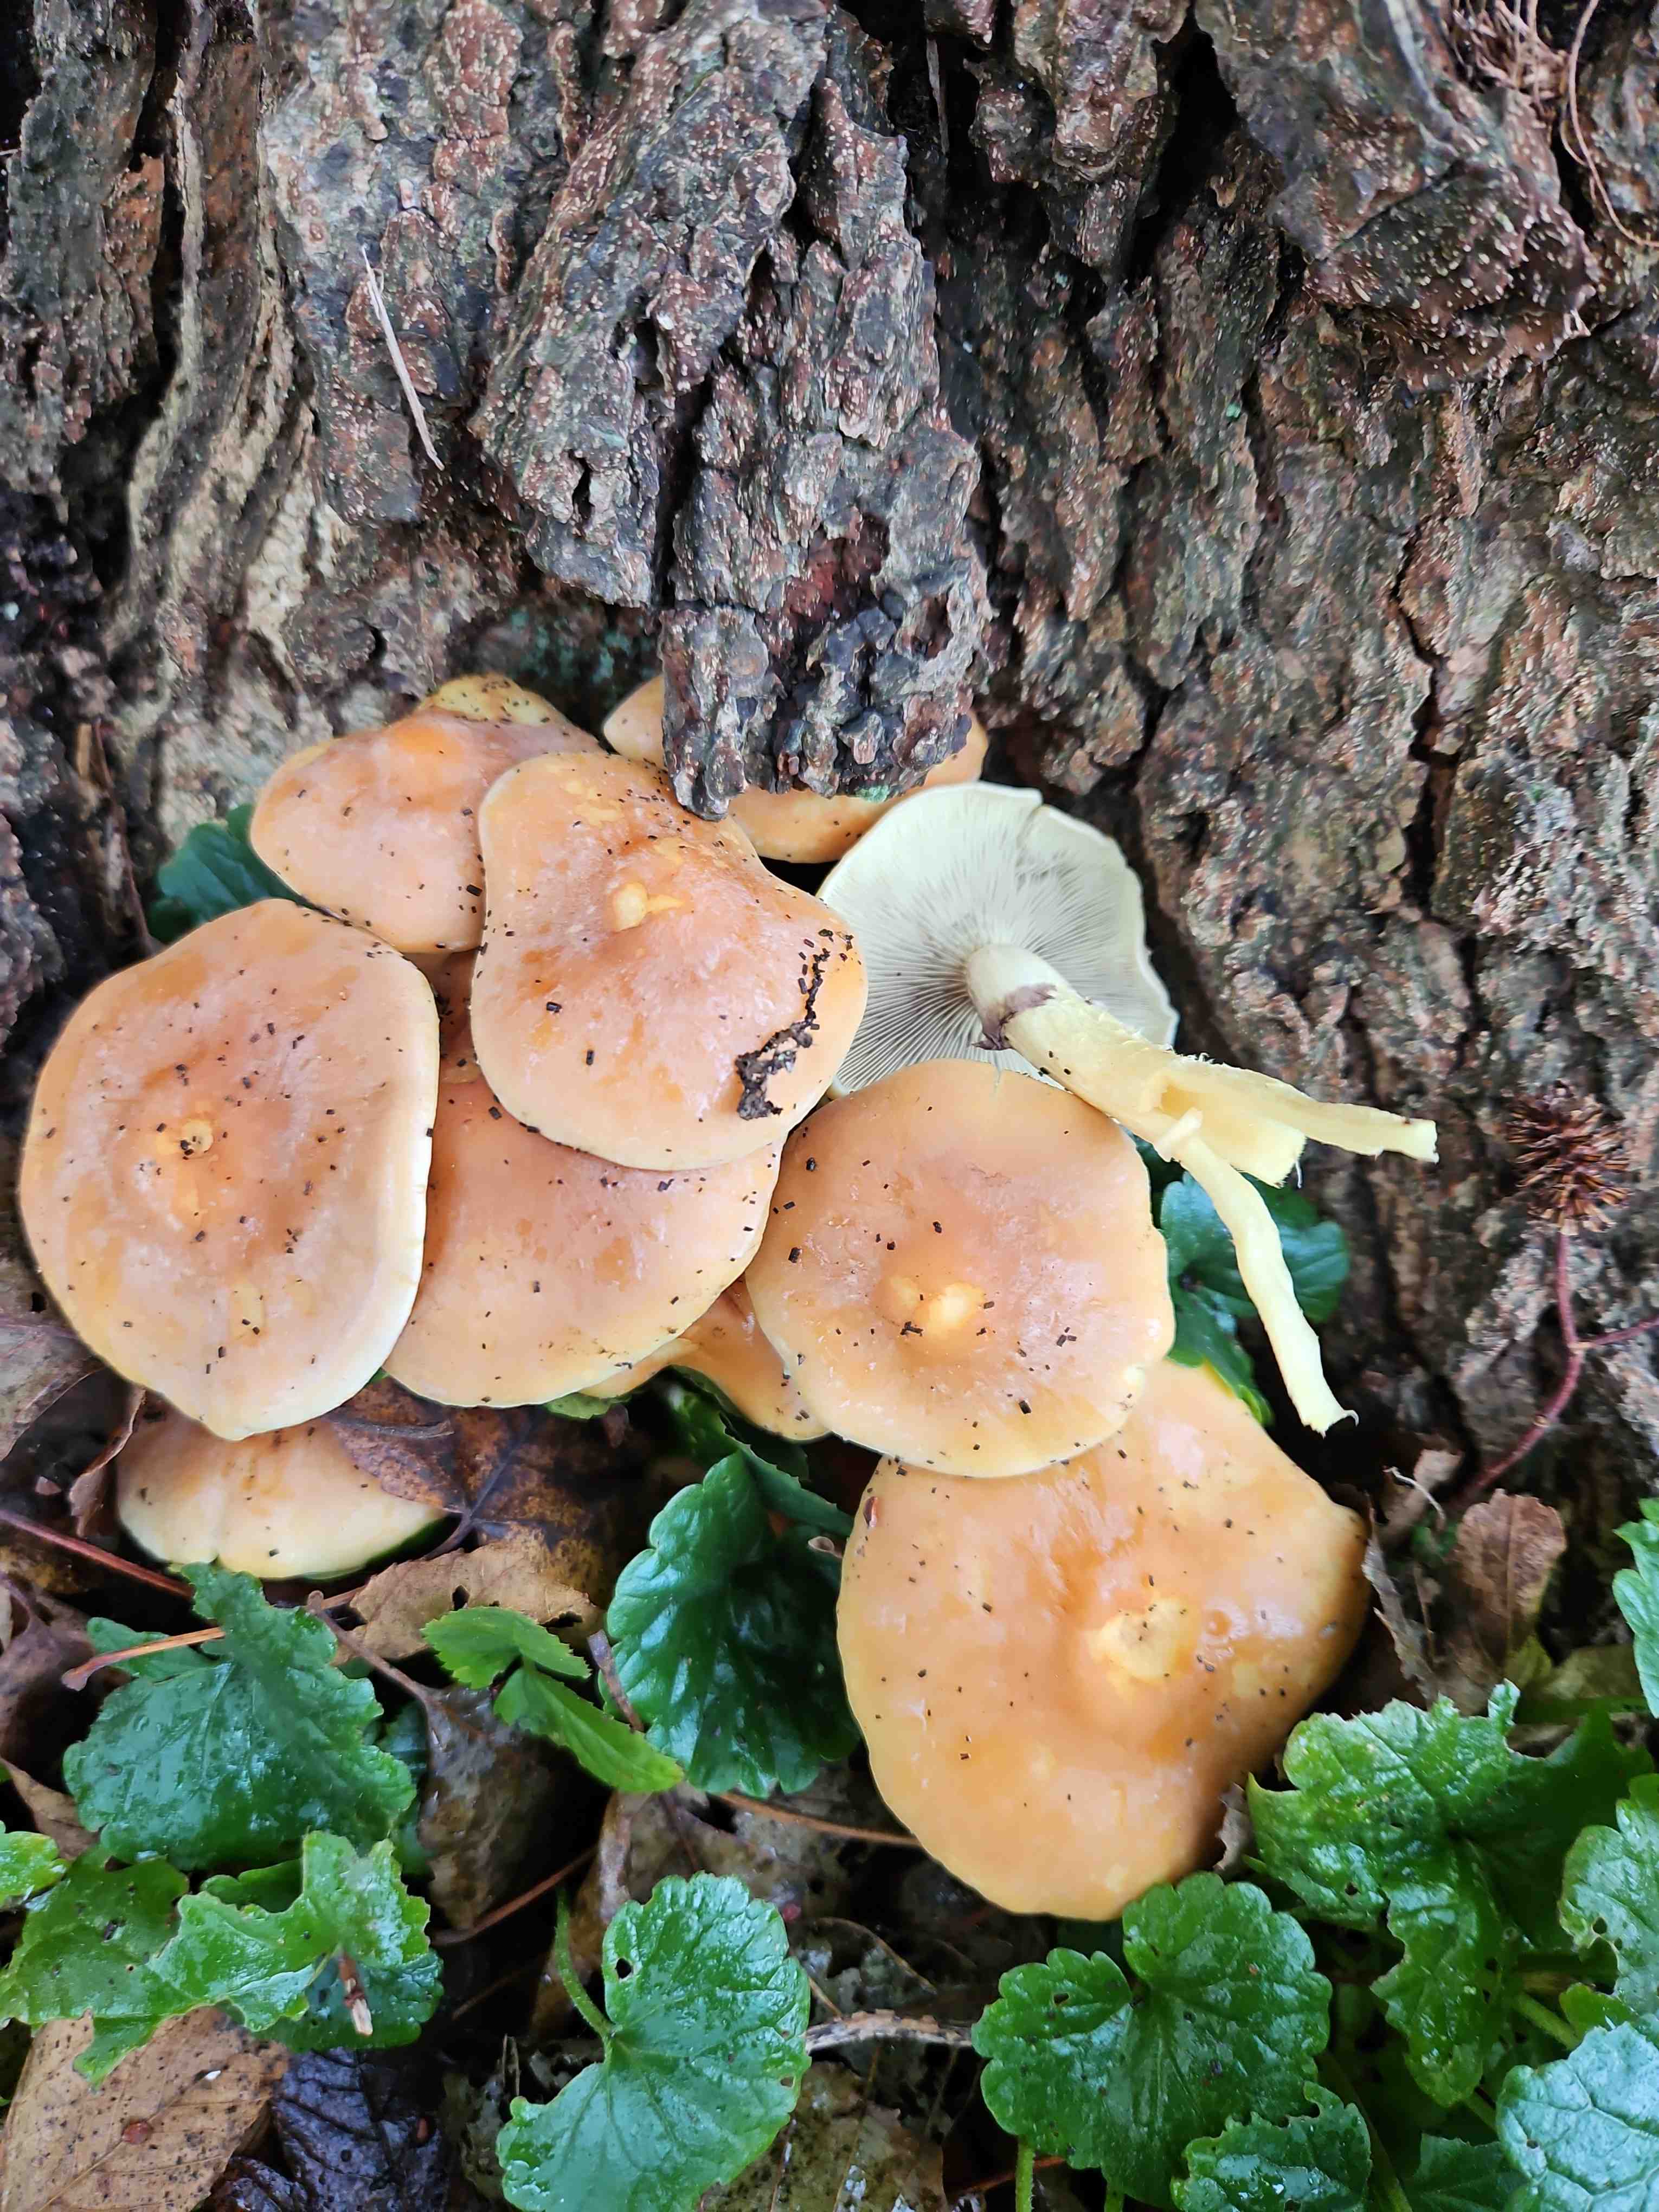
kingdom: Fungi
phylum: Basidiomycota
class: Agaricomycetes
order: Agaricales
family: Strophariaceae
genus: Hypholoma
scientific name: Hypholoma fasciculare
